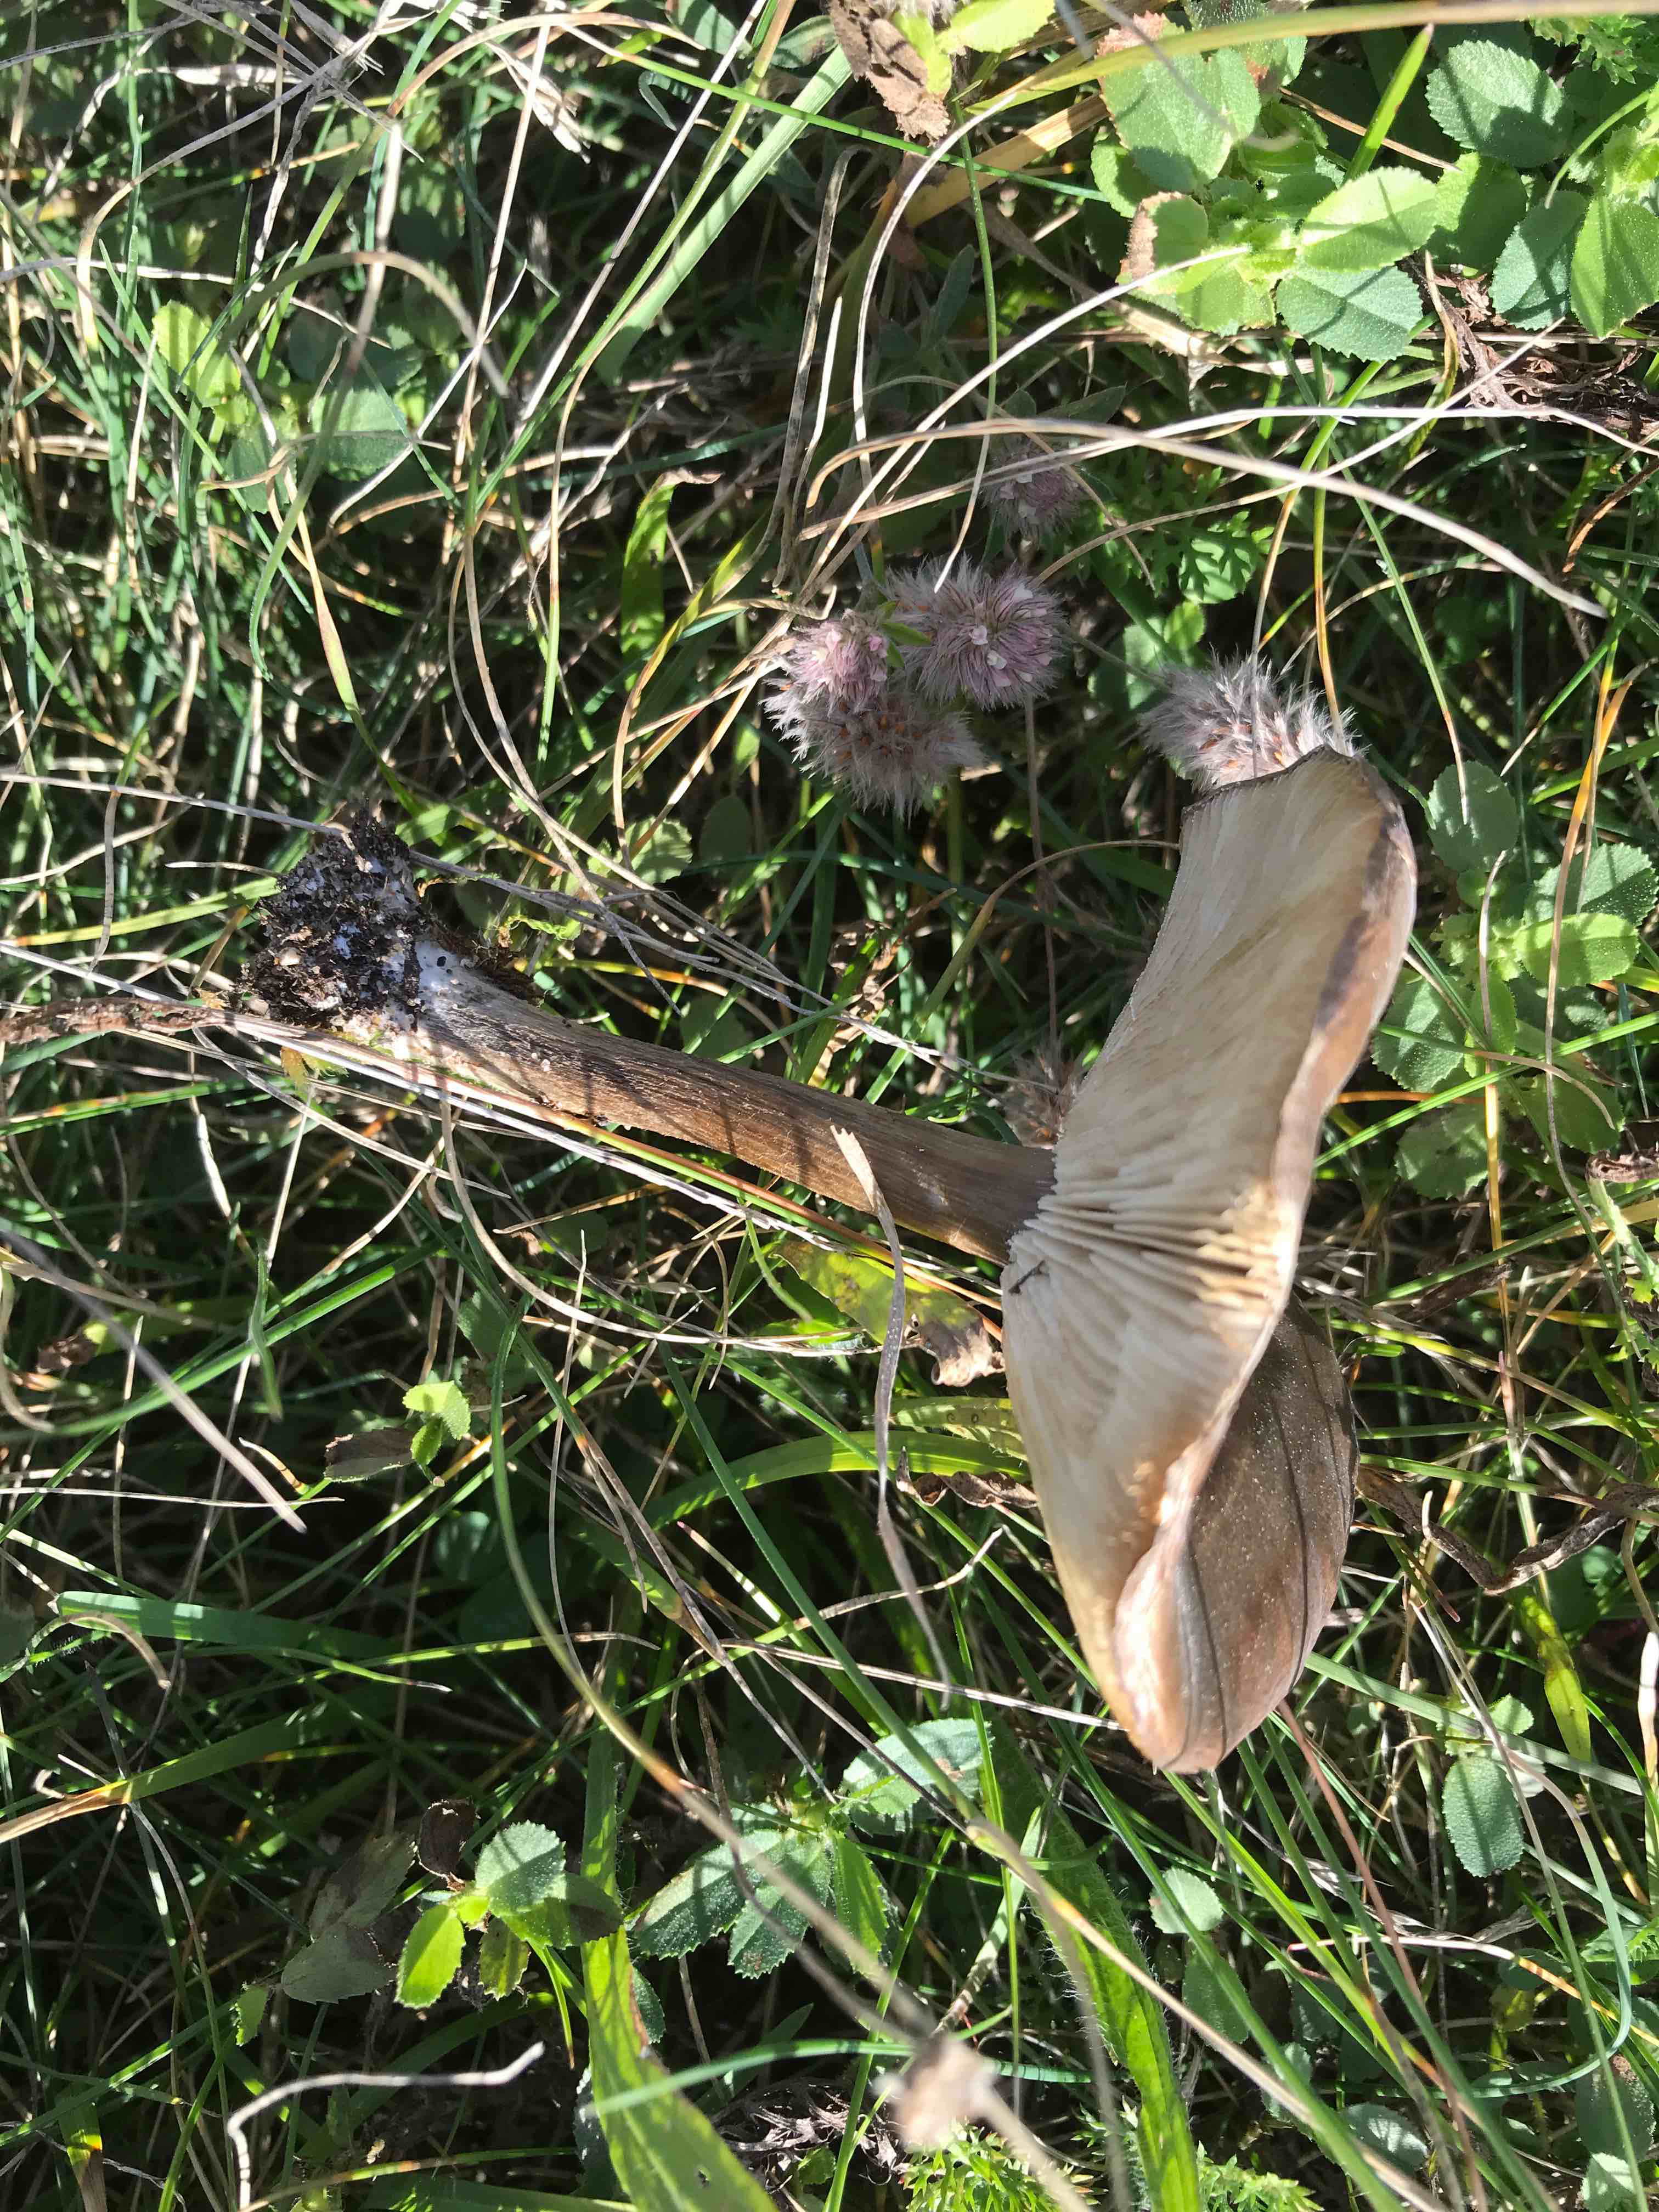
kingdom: Fungi
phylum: Basidiomycota
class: Agaricomycetes
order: Agaricales
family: Tricholomataceae
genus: Melanoleuca
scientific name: Melanoleuca
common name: munkehat
